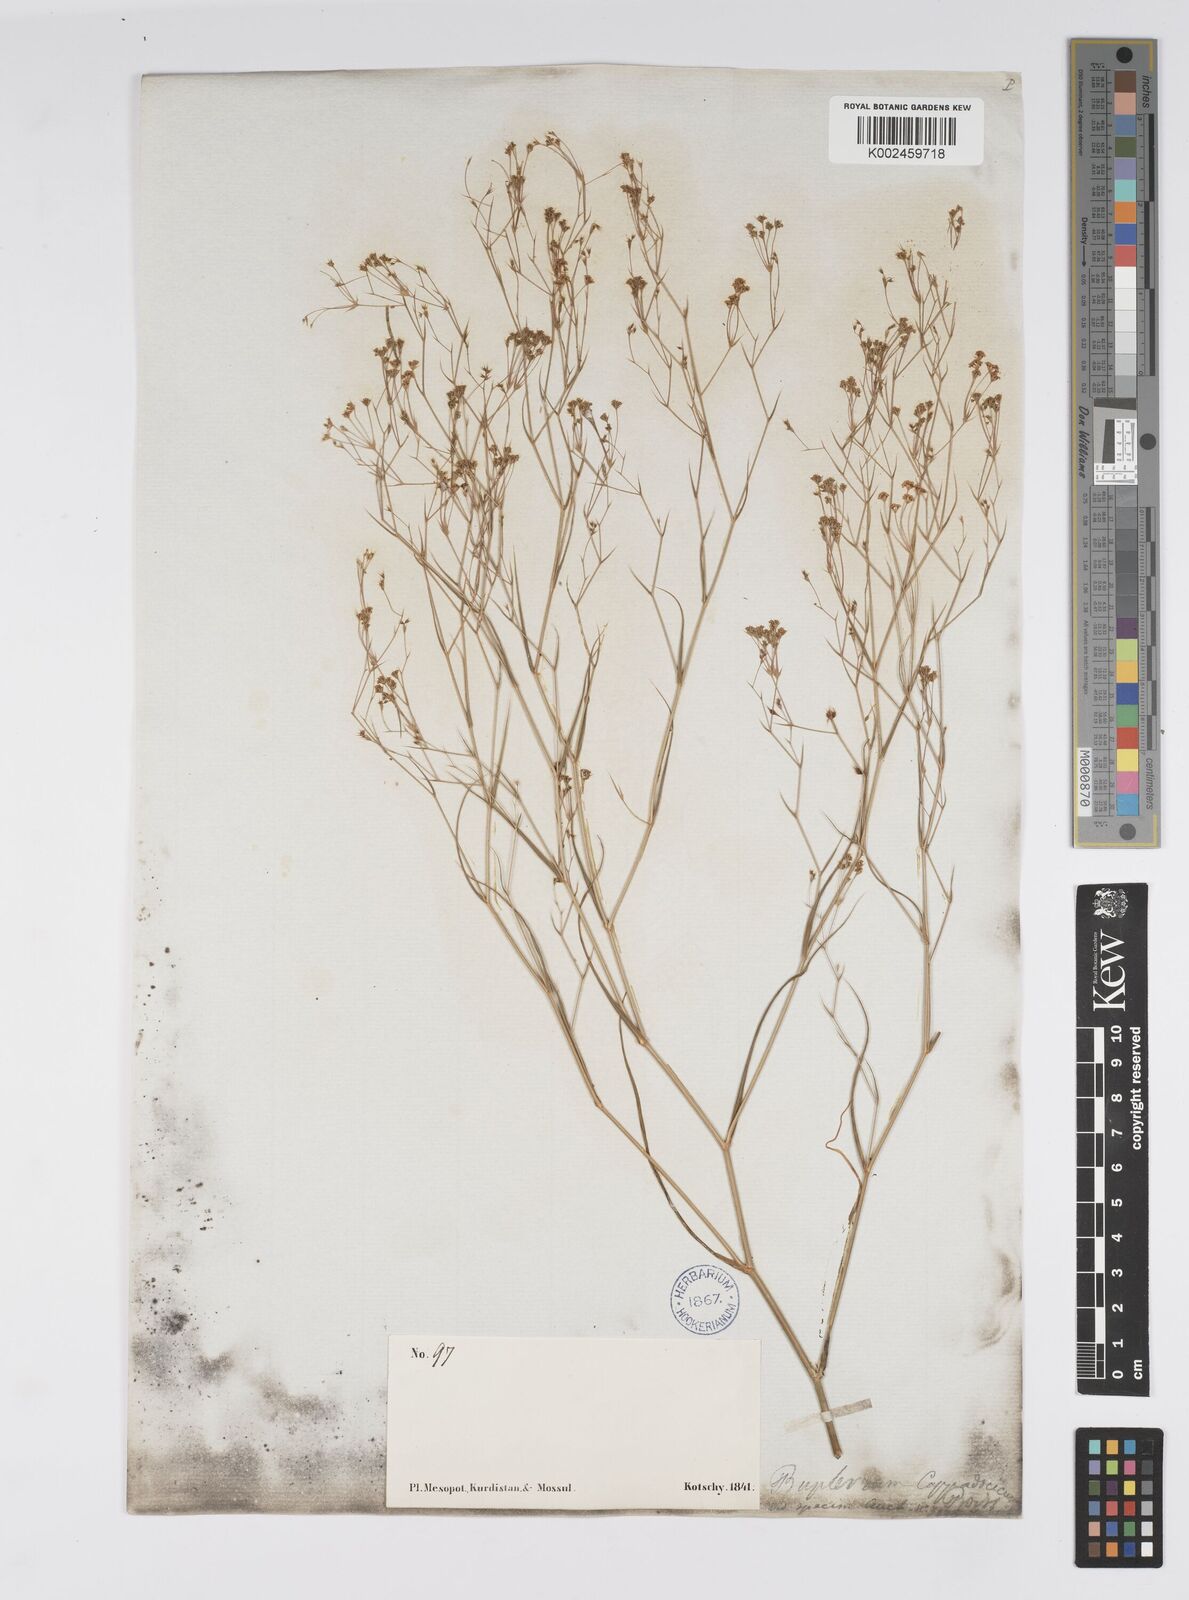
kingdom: Plantae
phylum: Tracheophyta
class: Magnoliopsida
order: Apiales
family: Apiaceae
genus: Bupleurum
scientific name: Bupleurum cappadocicum
